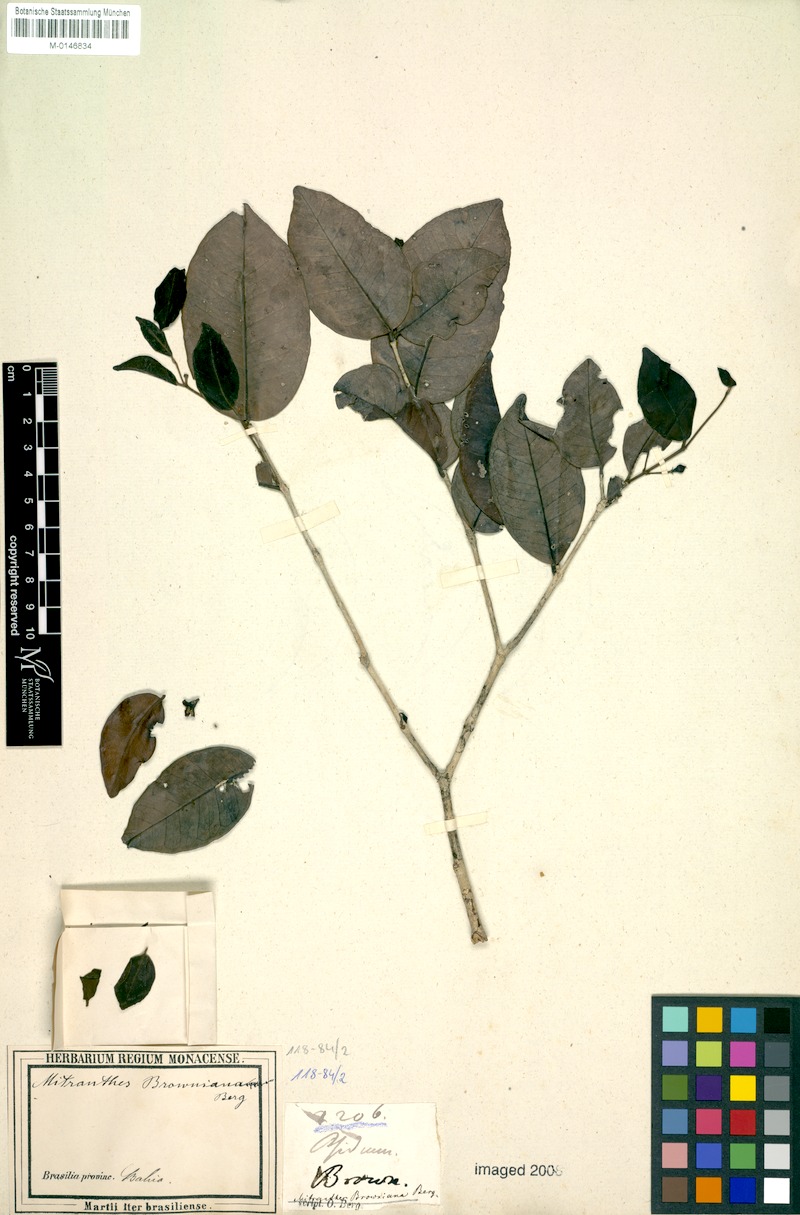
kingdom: Plantae
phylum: Tracheophyta
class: Magnoliopsida
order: Myrtales
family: Myrtaceae
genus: Psidium
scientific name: Psidium brownianum
